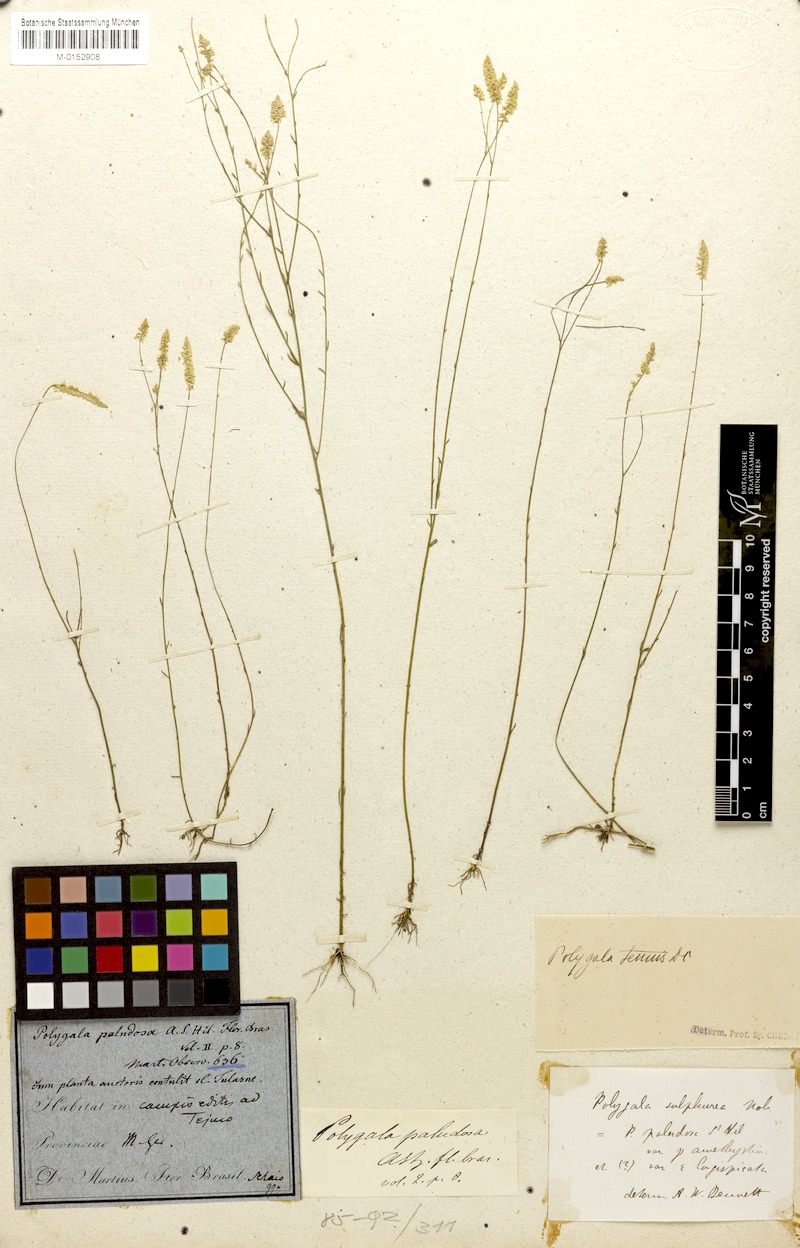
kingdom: Plantae
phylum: Tracheophyta
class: Magnoliopsida
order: Fabales
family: Polygalaceae
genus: Polygala
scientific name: Polygala tenuis
